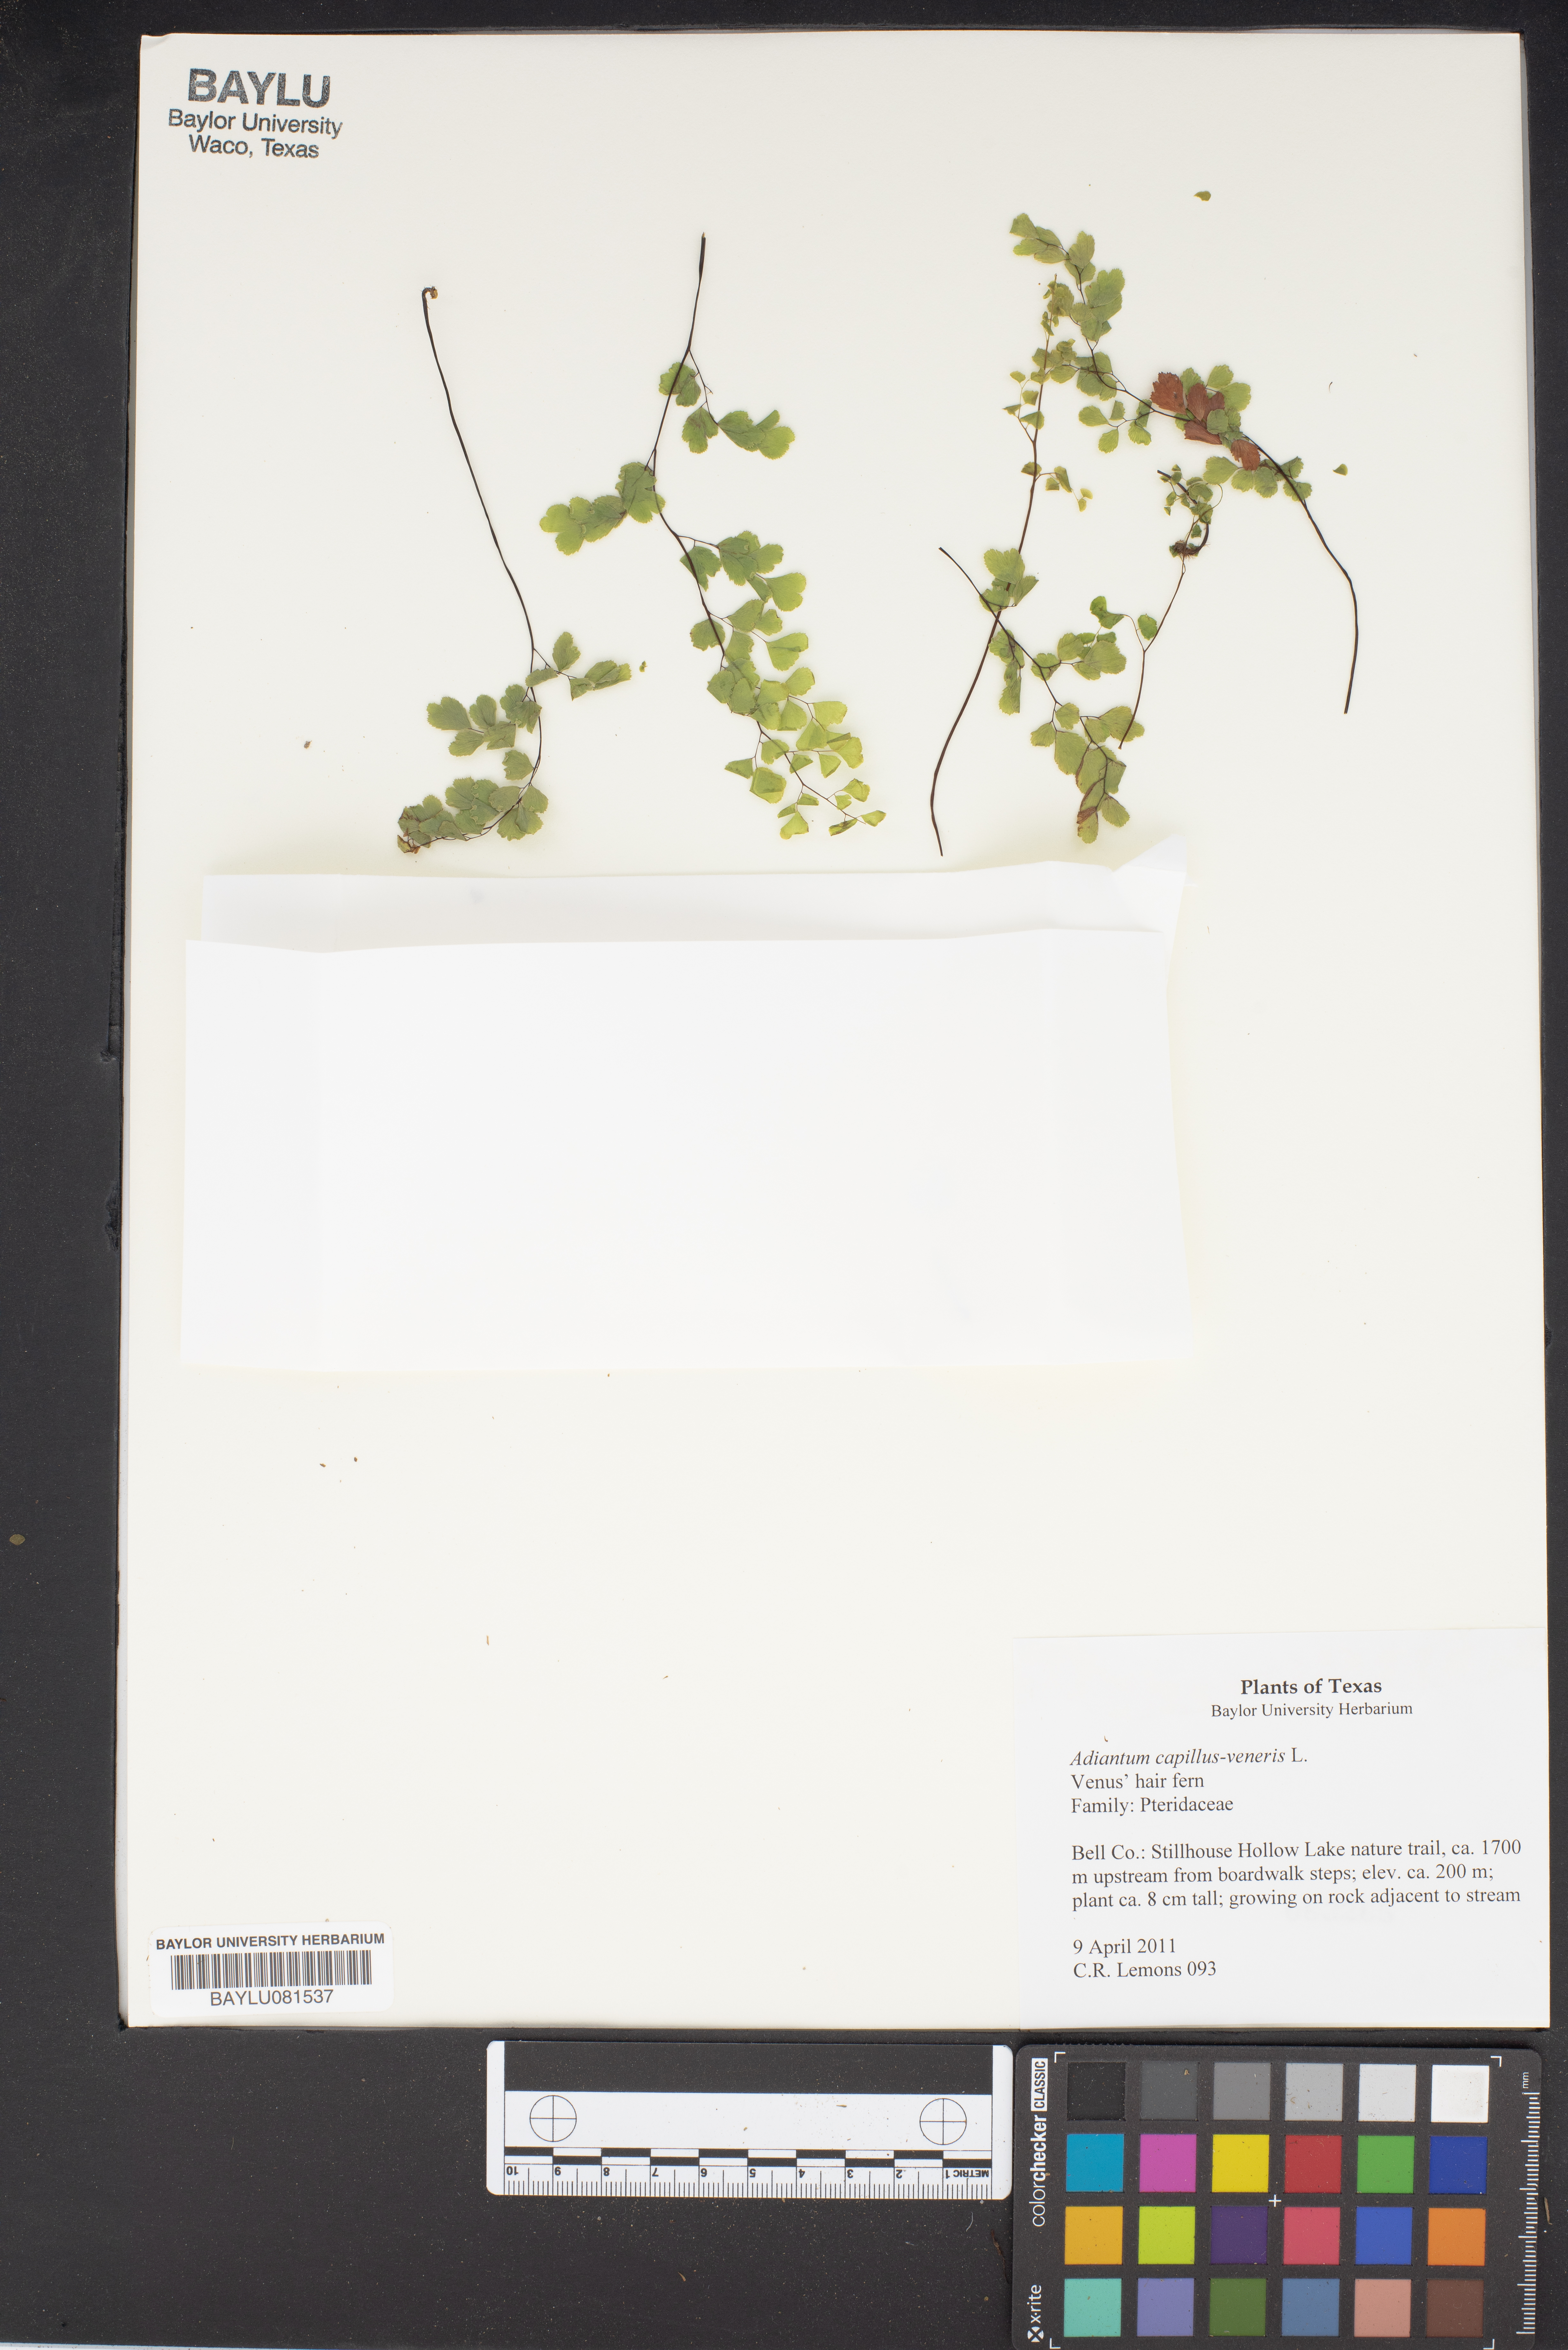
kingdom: Plantae
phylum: Tracheophyta
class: Polypodiopsida
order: Polypodiales
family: Pteridaceae
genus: Adiantum
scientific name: Adiantum capillus-veneris
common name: Maidenhair fern
